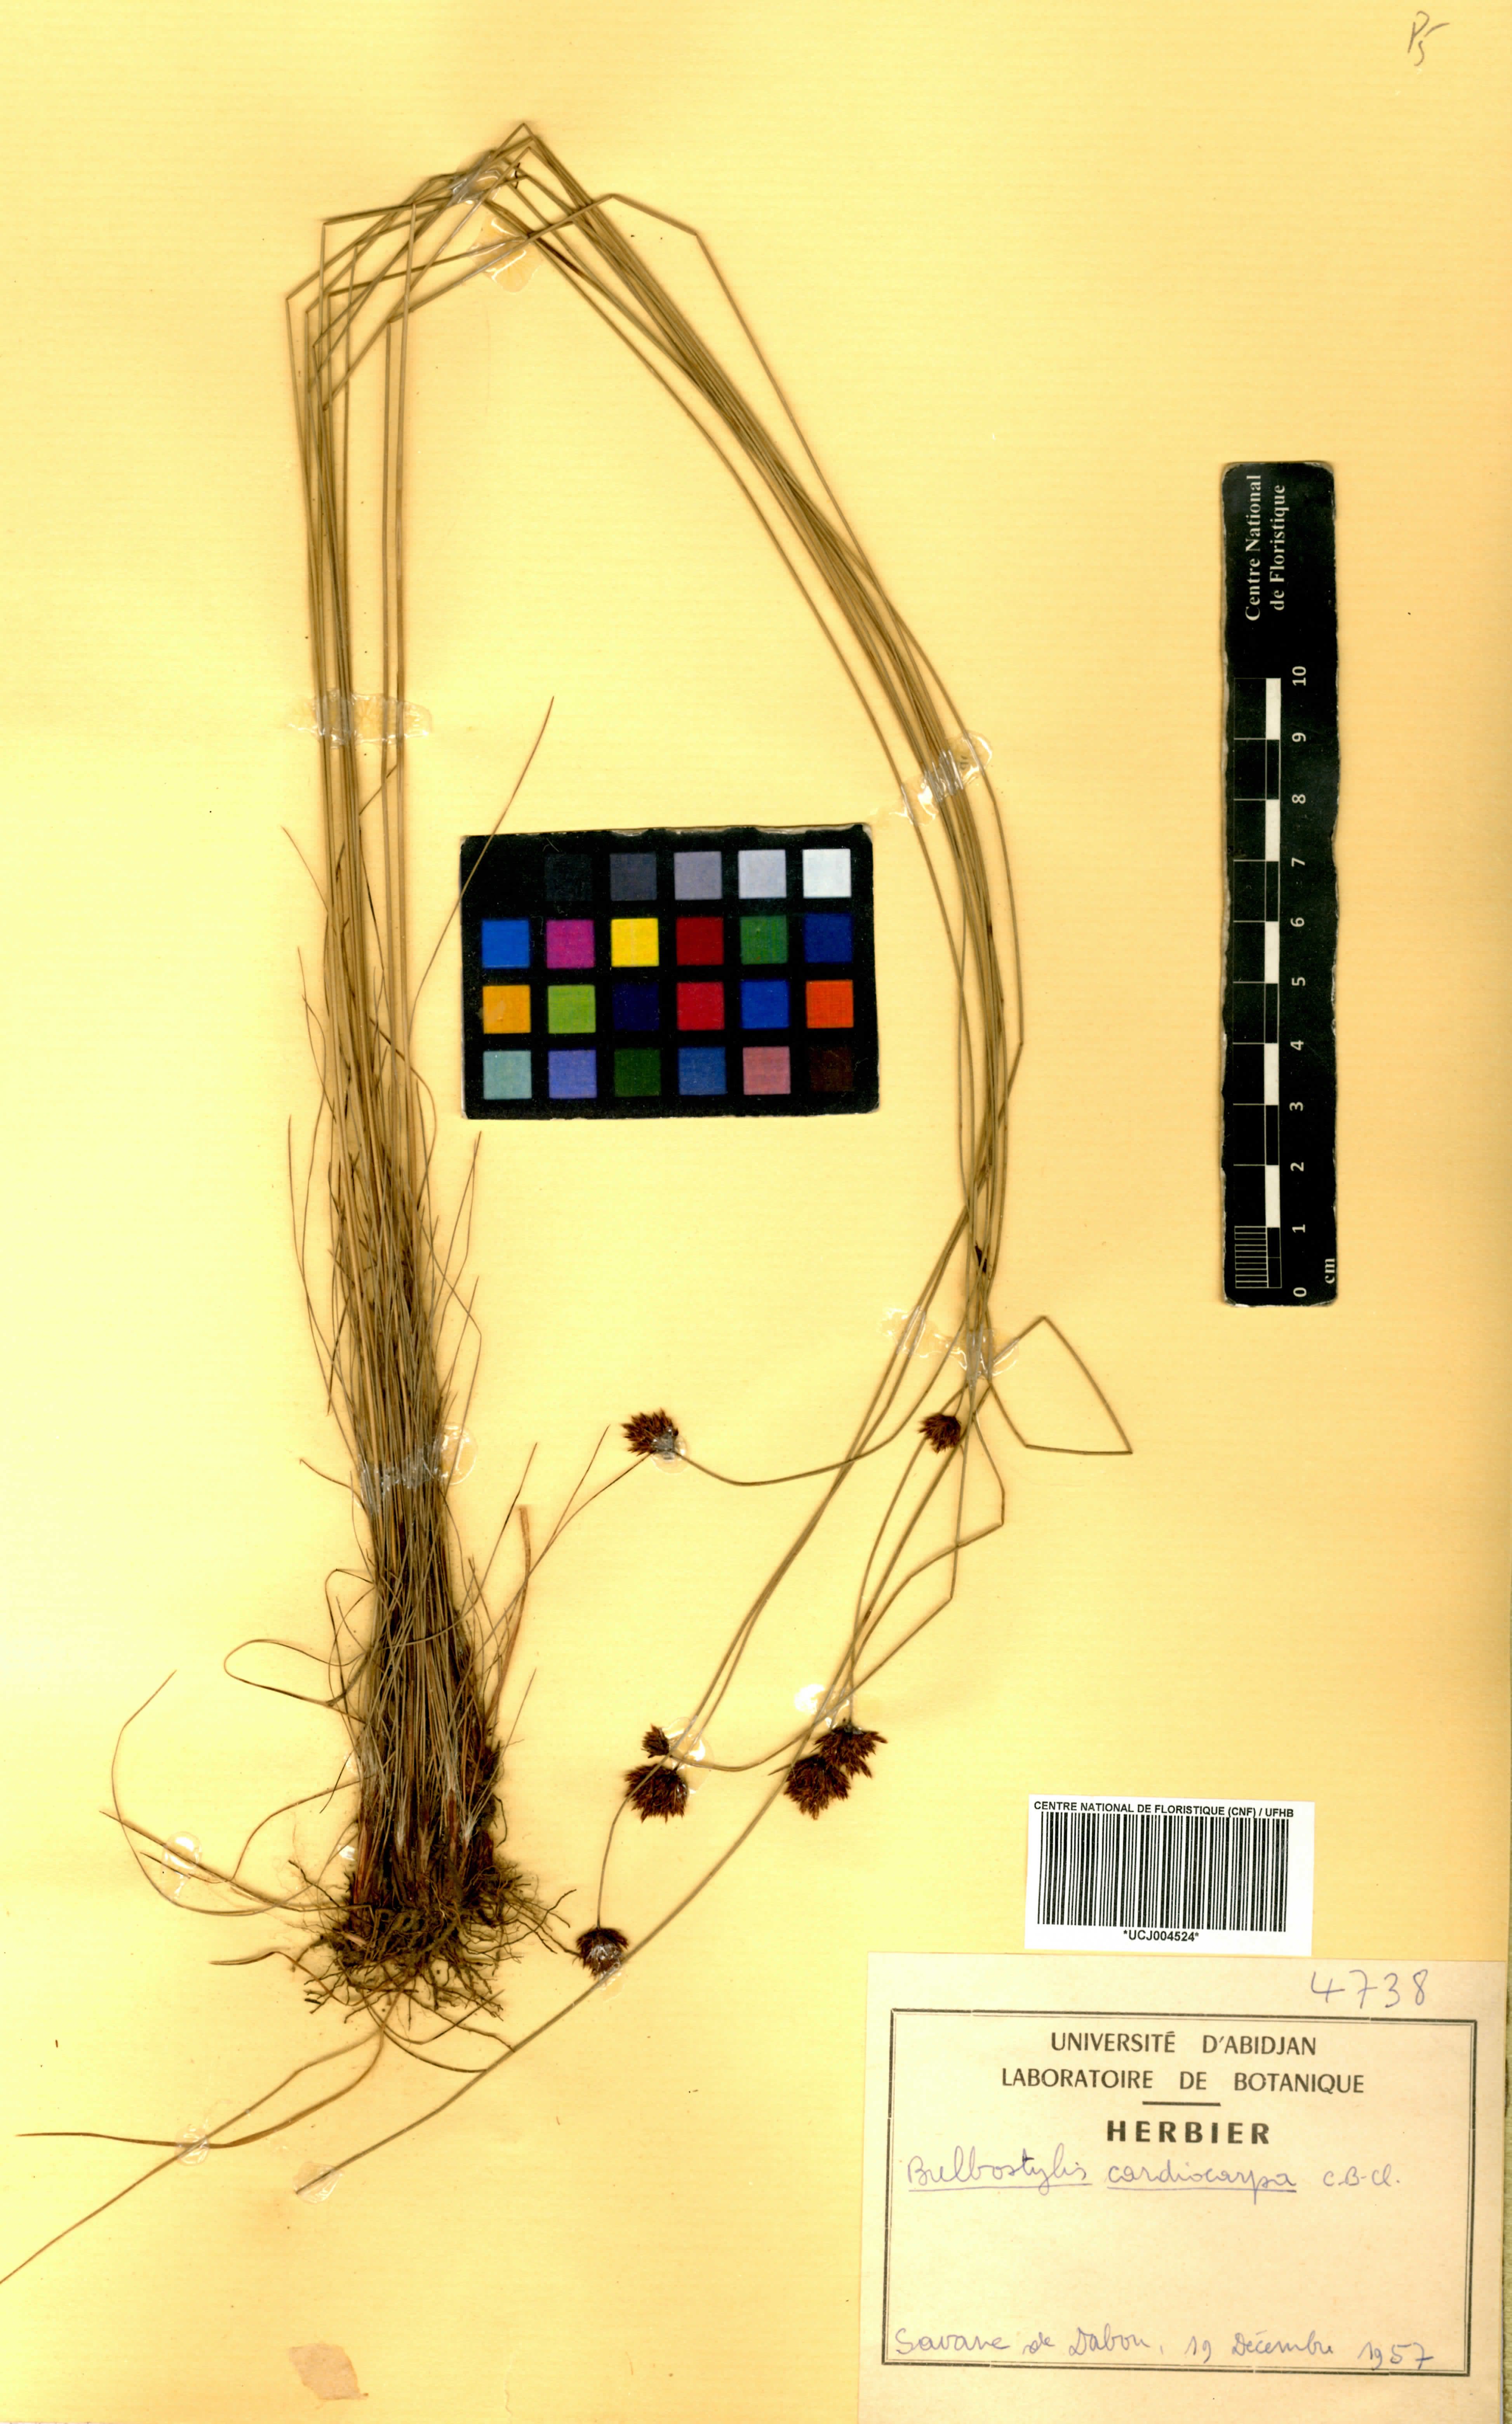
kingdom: Plantae
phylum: Tracheophyta
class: Liliopsida
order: Poales
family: Cyperaceae
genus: Bulbostylis
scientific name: Bulbostylis filamentosa
